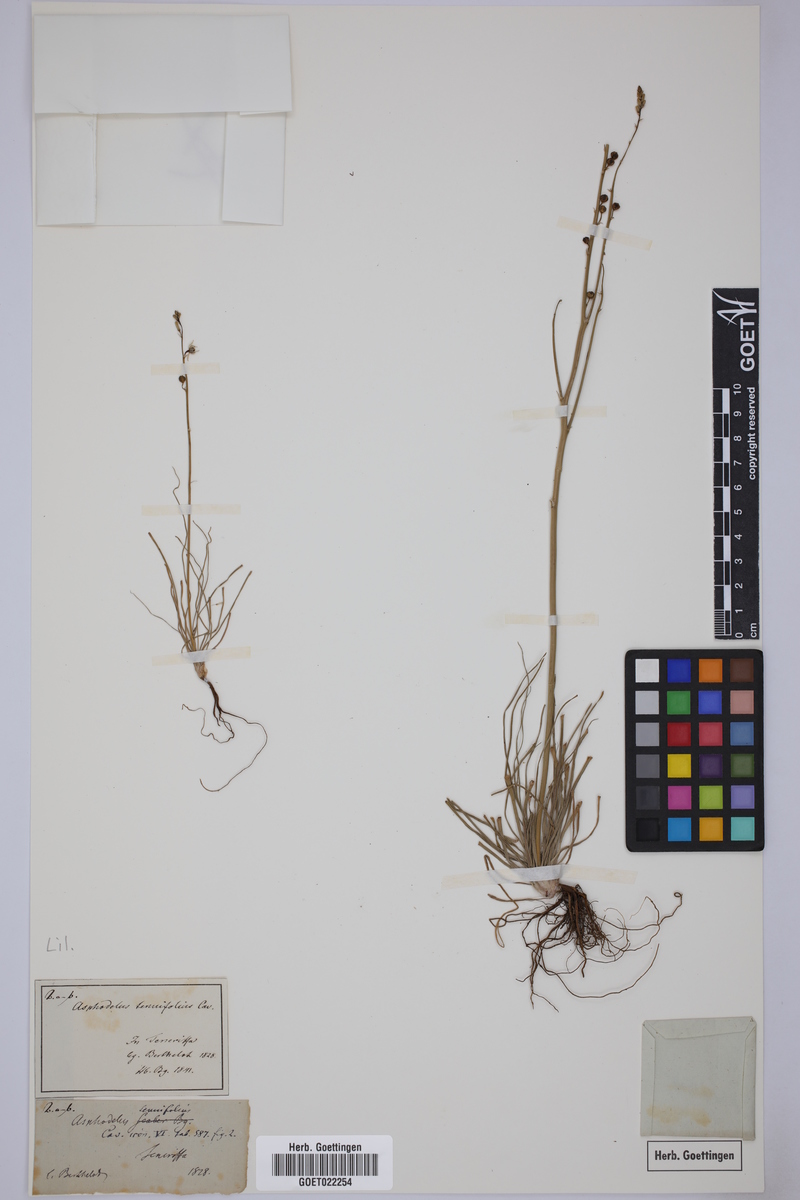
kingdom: Plantae
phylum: Tracheophyta
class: Liliopsida
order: Asparagales
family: Asphodelaceae
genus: Asphodelus
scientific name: Asphodelus tenuifolius
